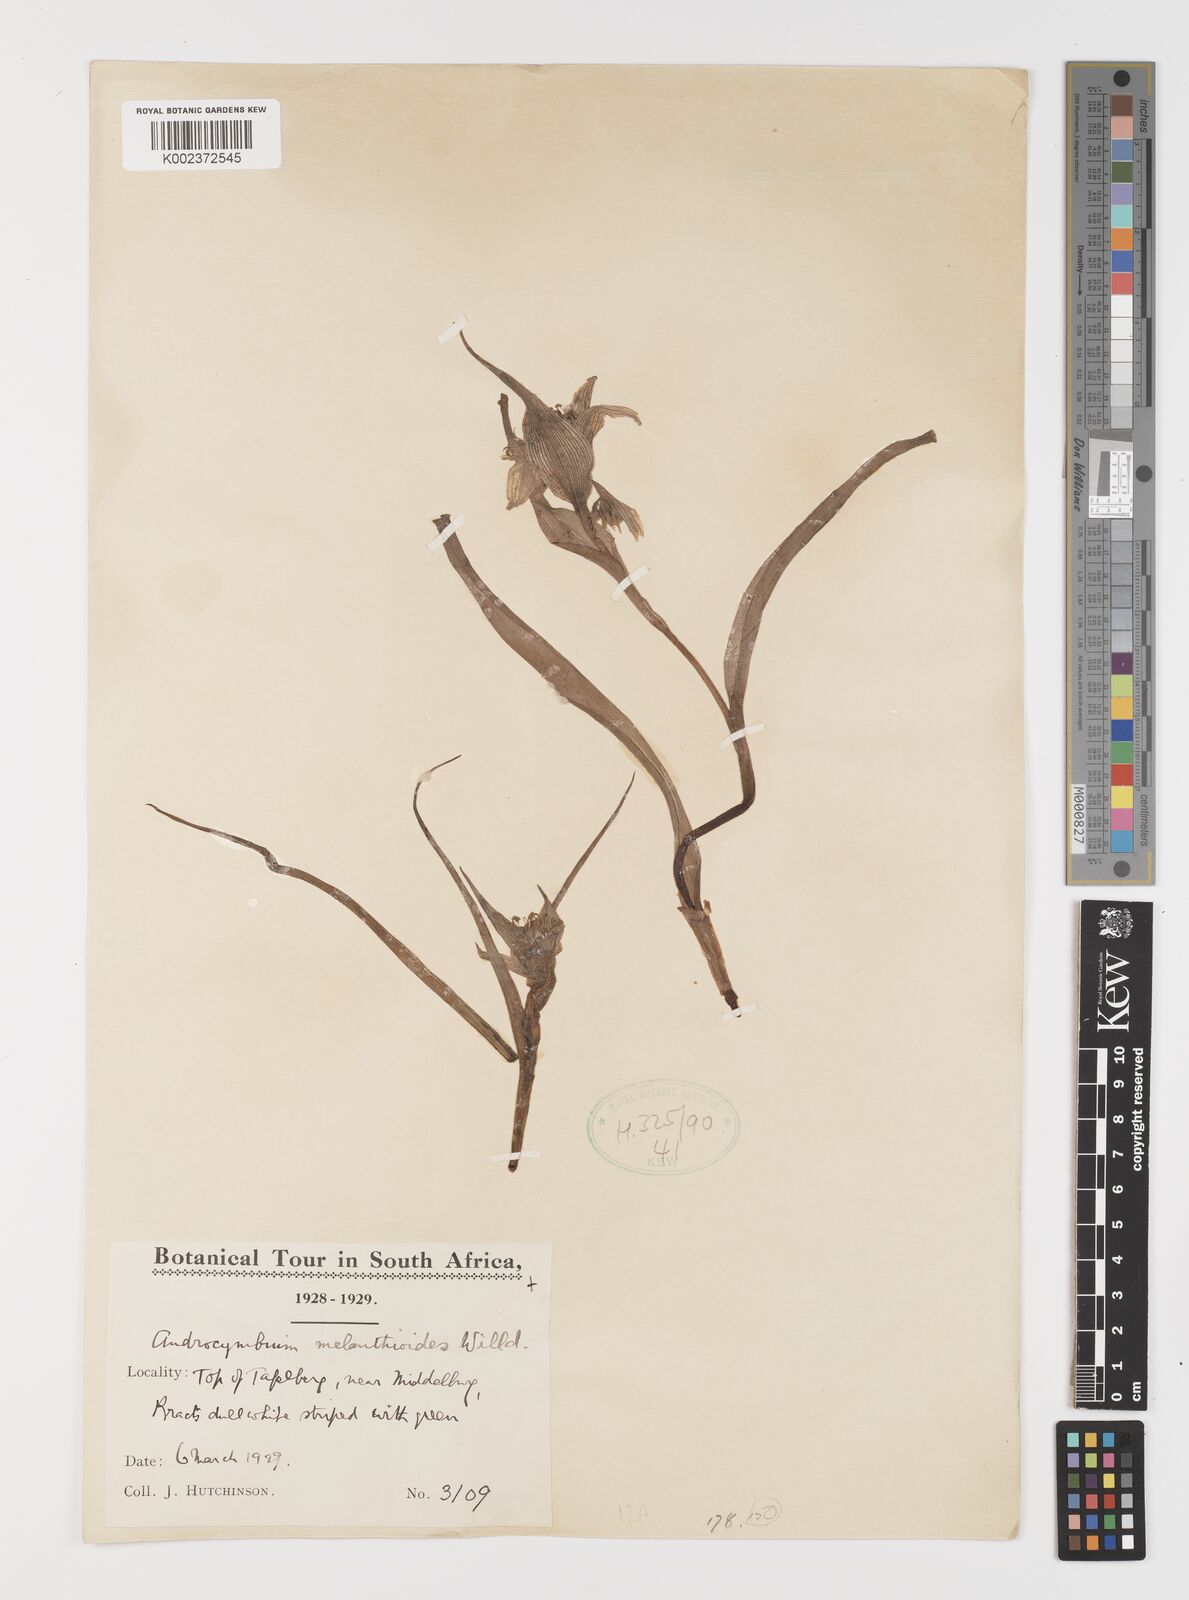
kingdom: Plantae
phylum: Tracheophyta
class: Liliopsida
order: Liliales
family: Colchicaceae
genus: Colchicum
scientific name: Colchicum melanthioides
